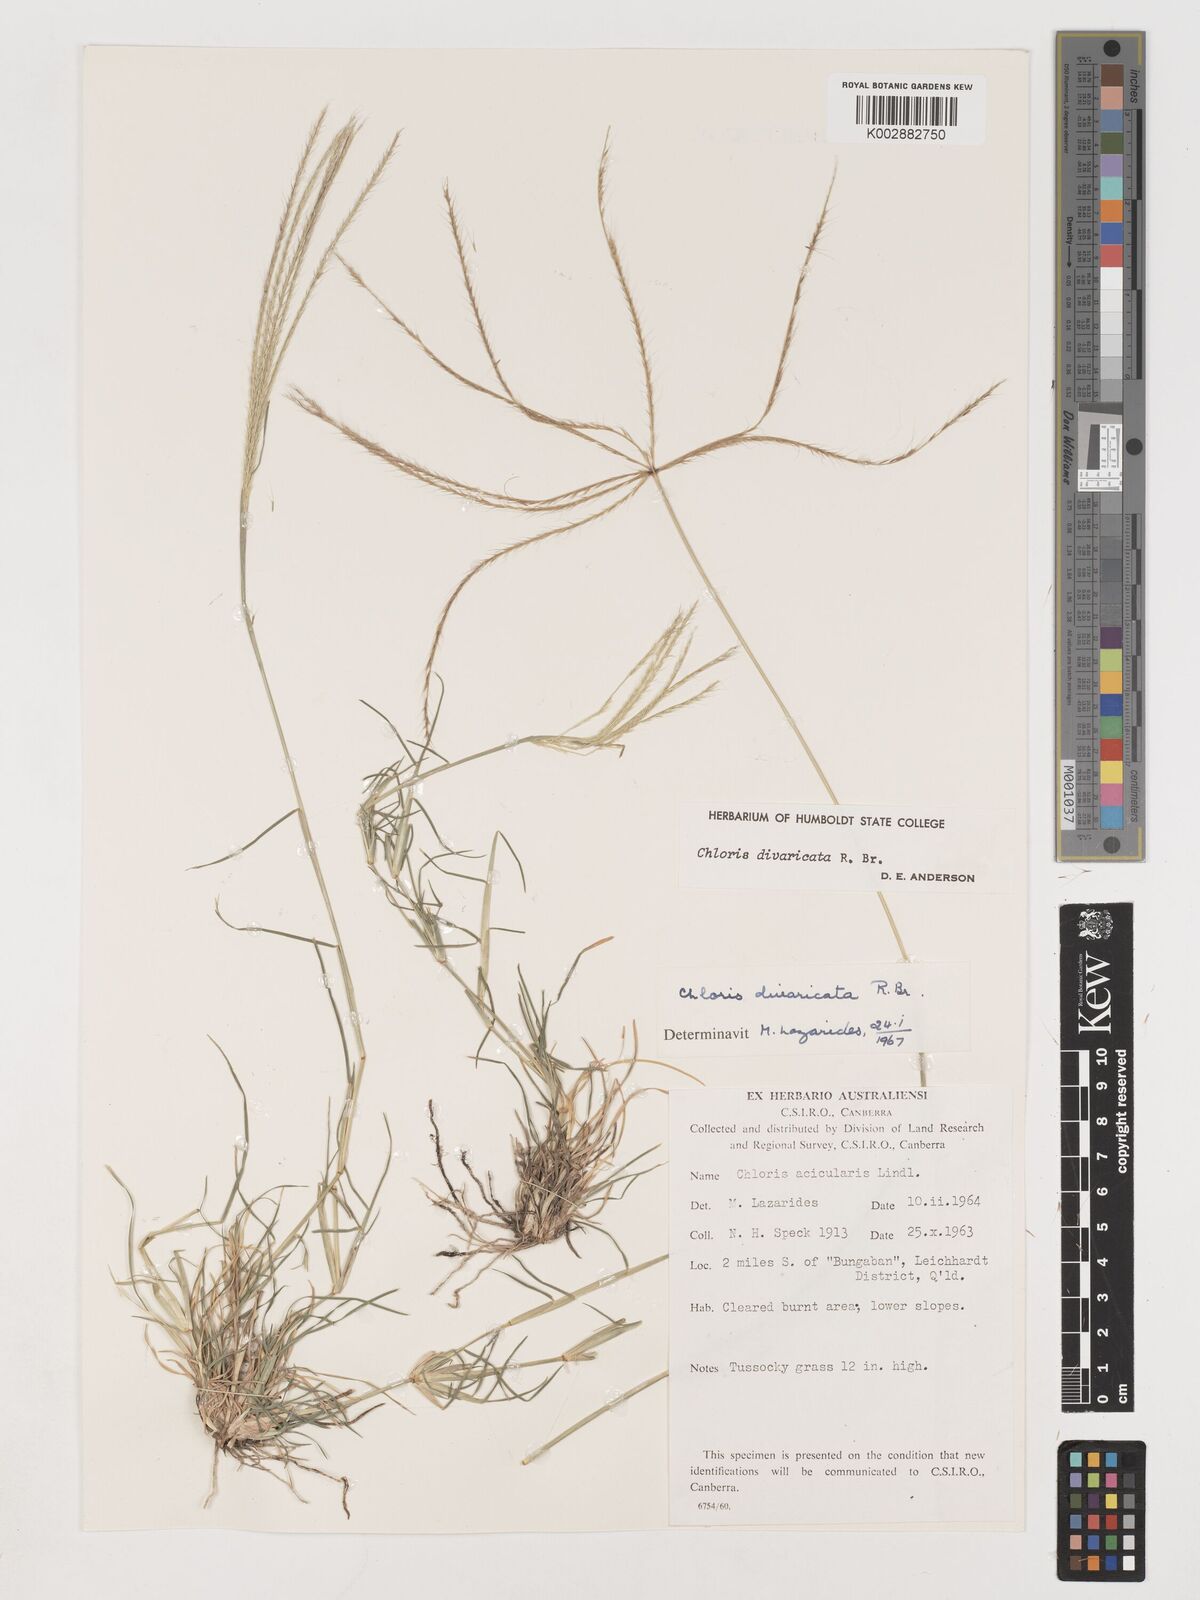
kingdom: Plantae
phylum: Tracheophyta
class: Liliopsida
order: Poales
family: Poaceae
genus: Chloris
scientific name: Chloris divaricata
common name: Spreading windmill grass
